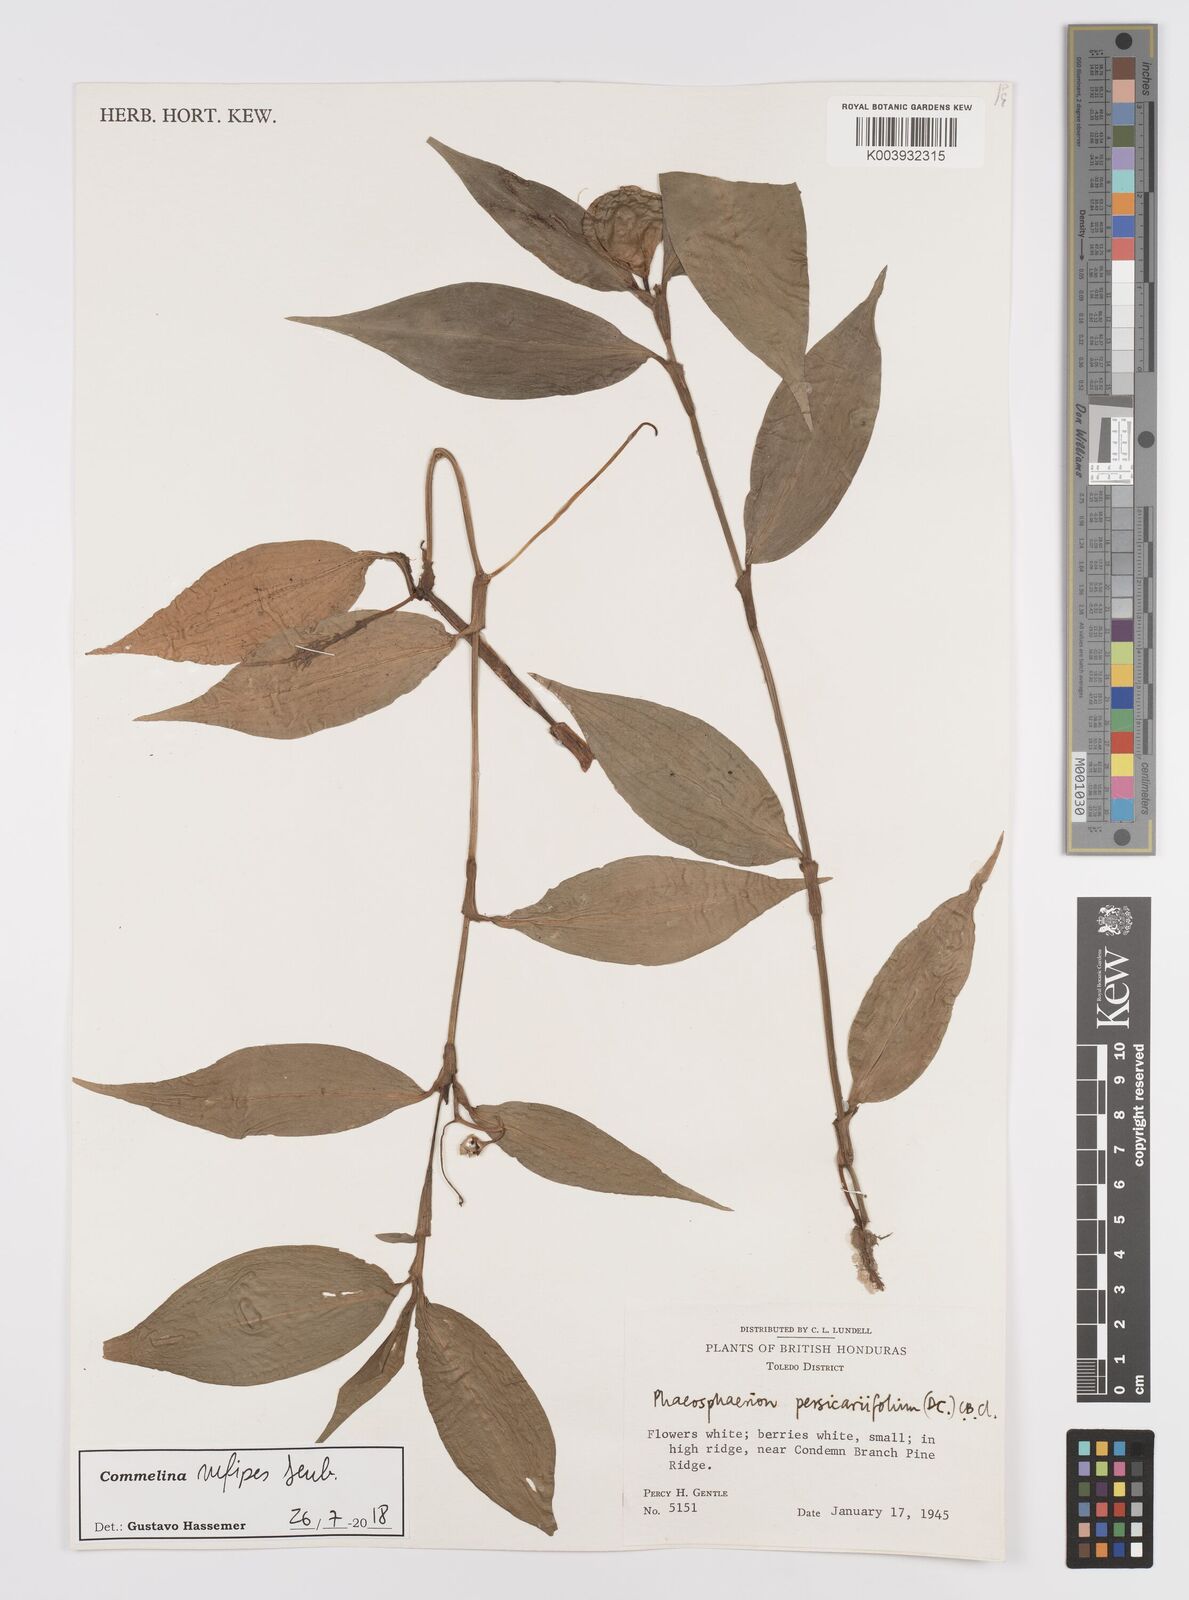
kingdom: Plantae
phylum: Tracheophyta
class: Liliopsida
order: Commelinales
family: Commelinaceae
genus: Commelina
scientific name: Commelina rufipes
